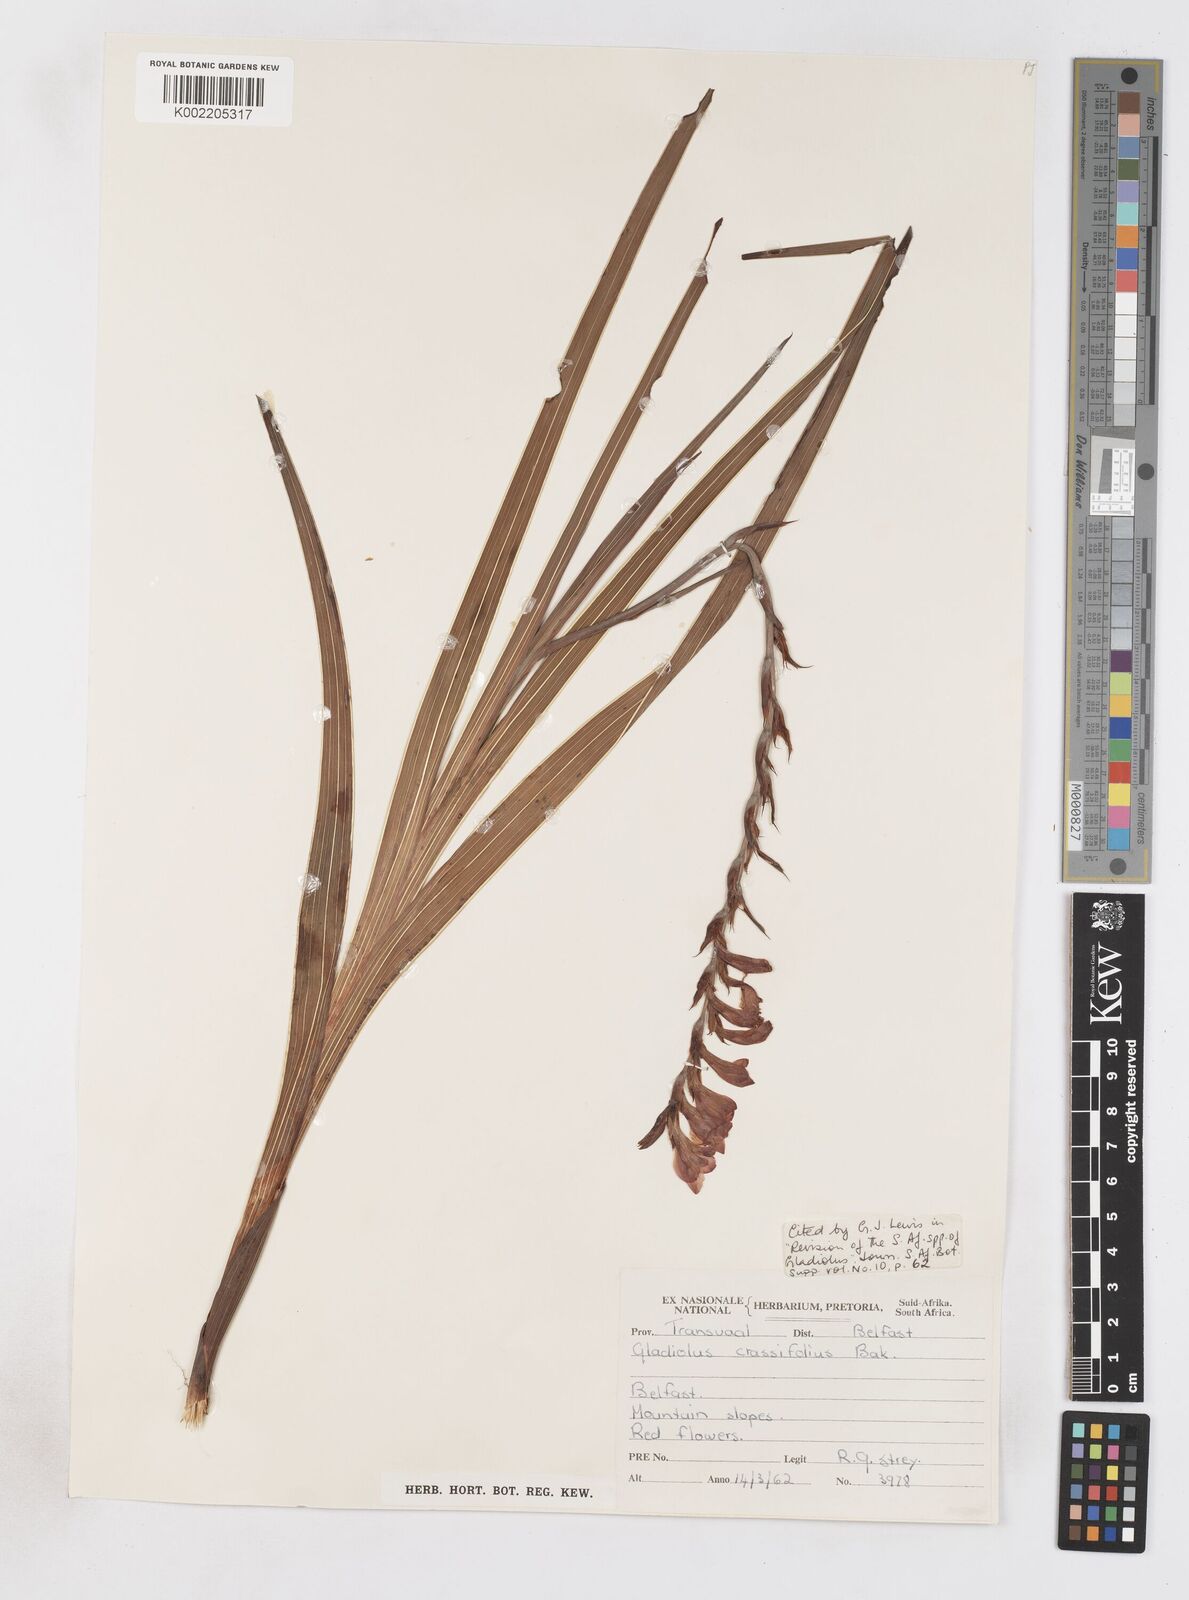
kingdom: Plantae
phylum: Tracheophyta
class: Liliopsida
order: Asparagales
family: Iridaceae
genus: Gladiolus
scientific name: Gladiolus crassifolius
